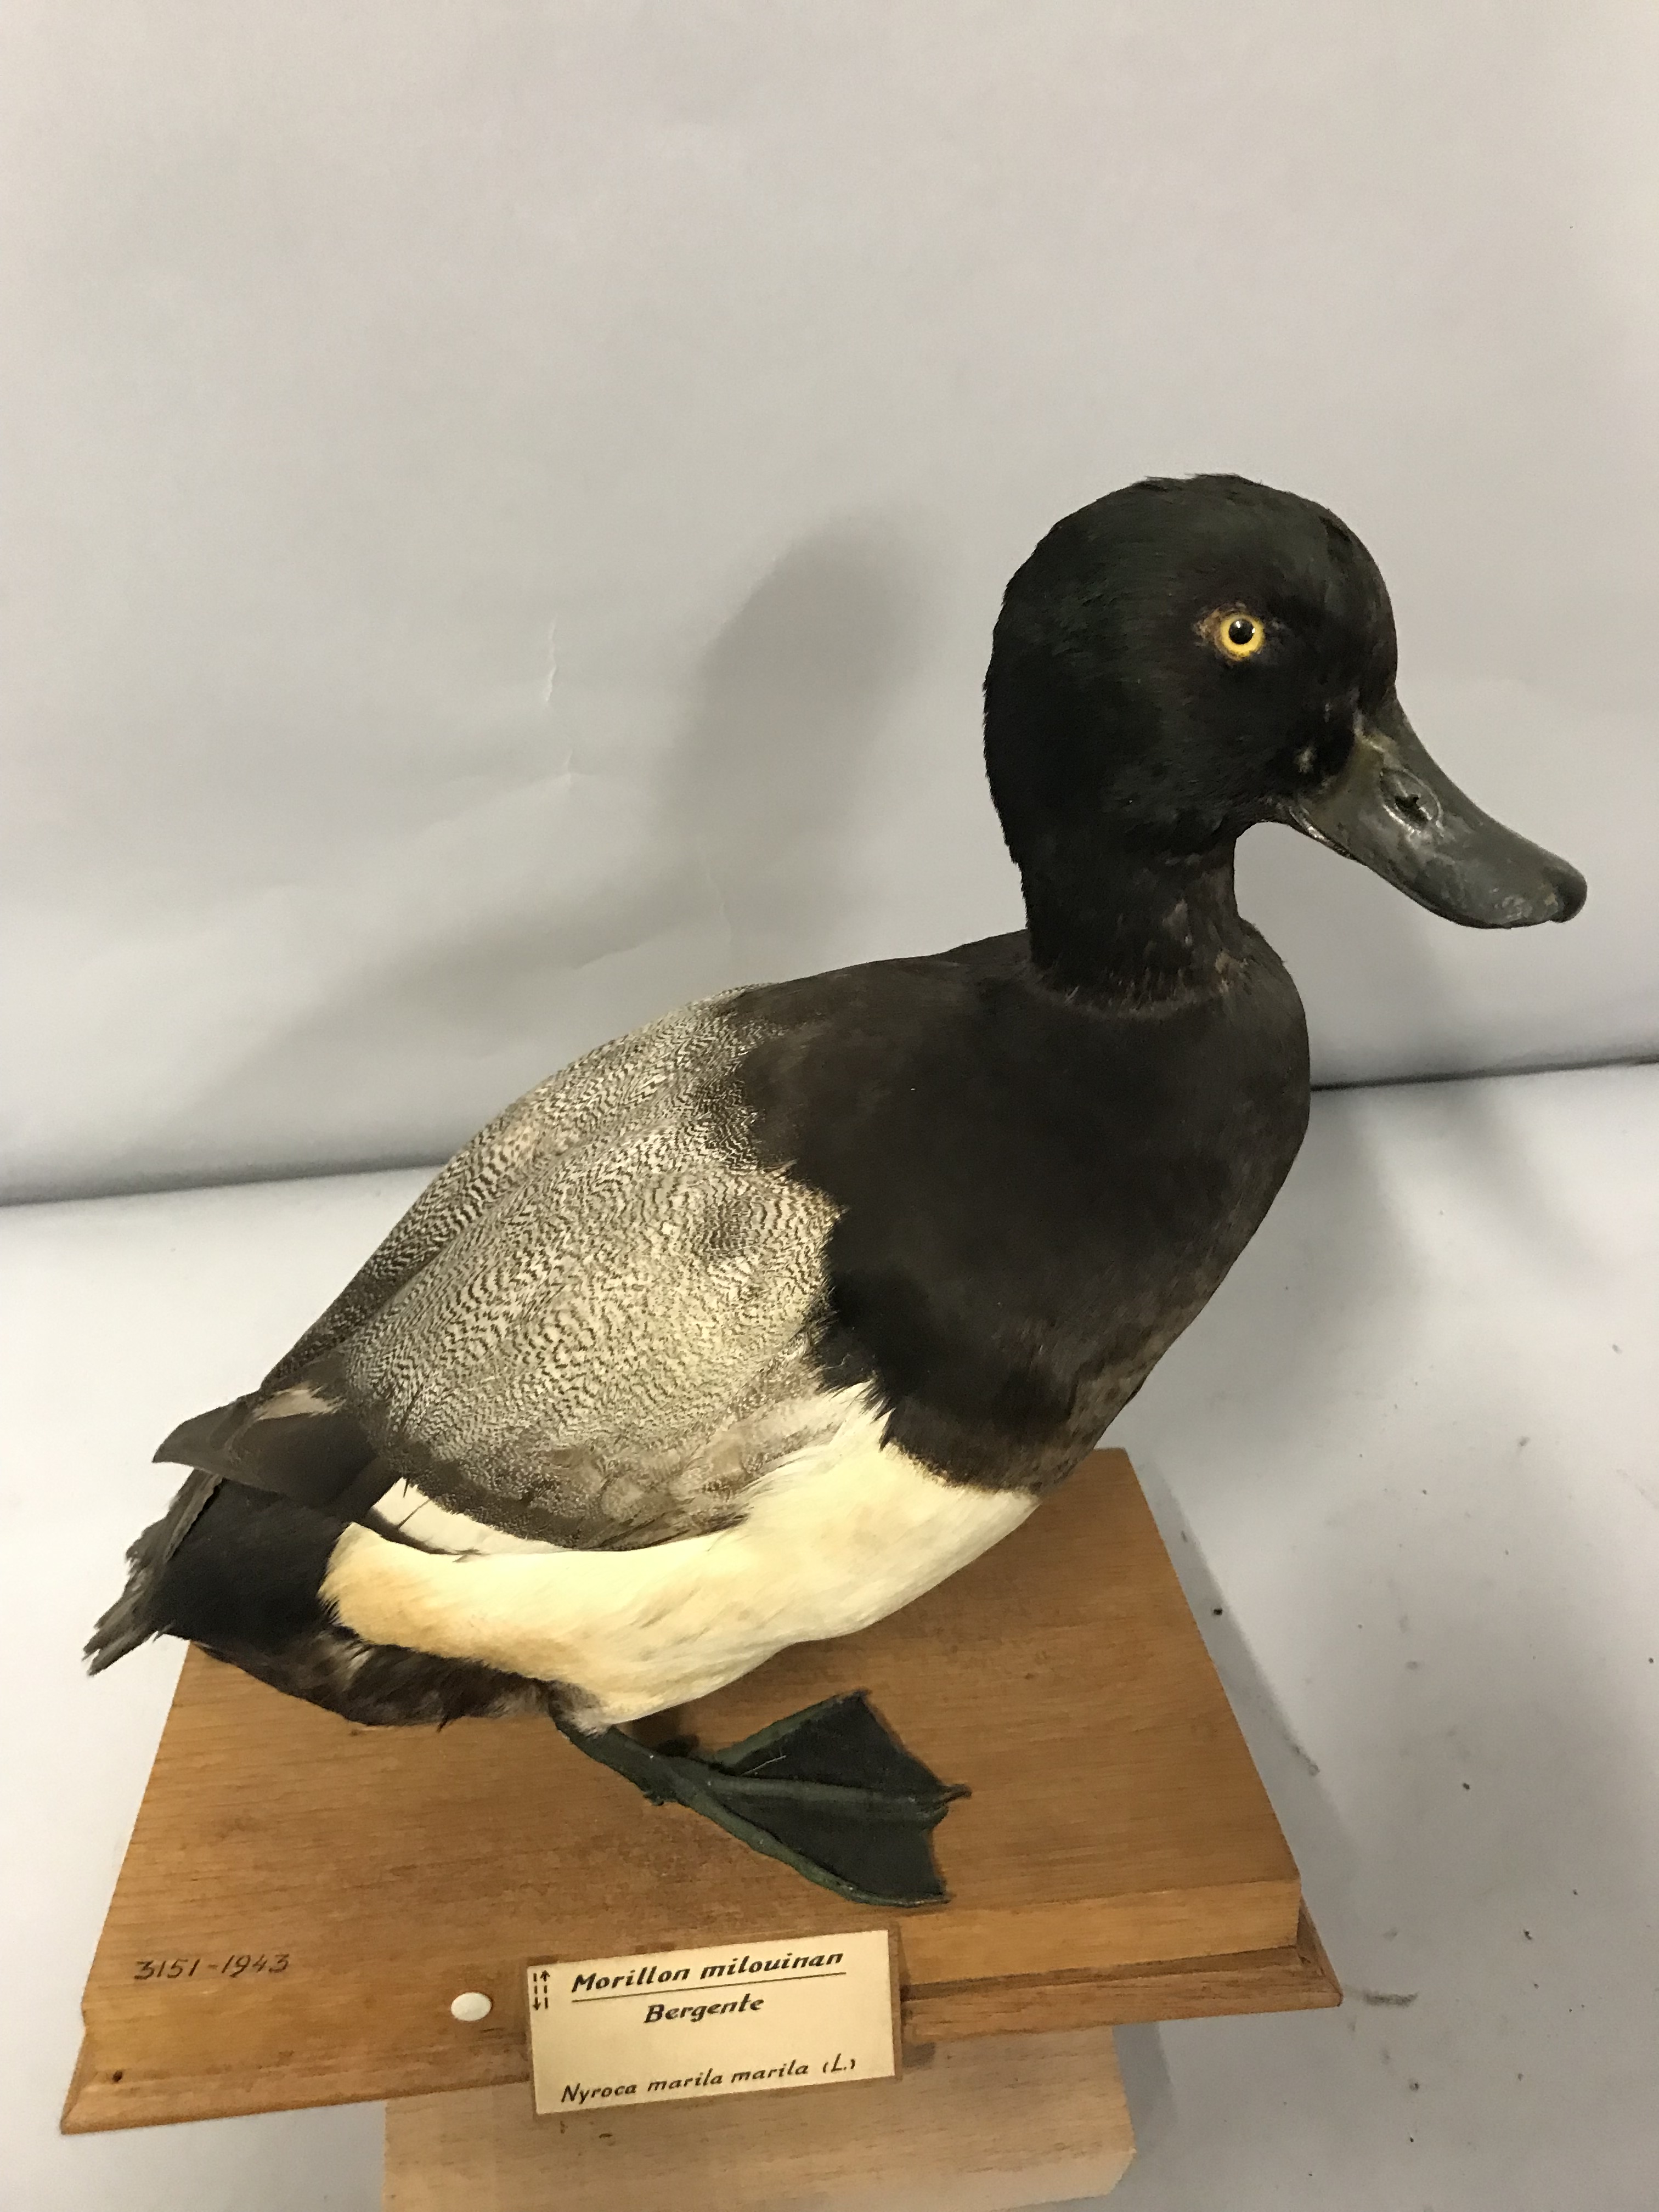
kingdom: Animalia
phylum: Chordata
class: Aves
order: Anseriformes
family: Anatidae
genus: Aythya
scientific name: Aythya fuligula
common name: Tufted duck
